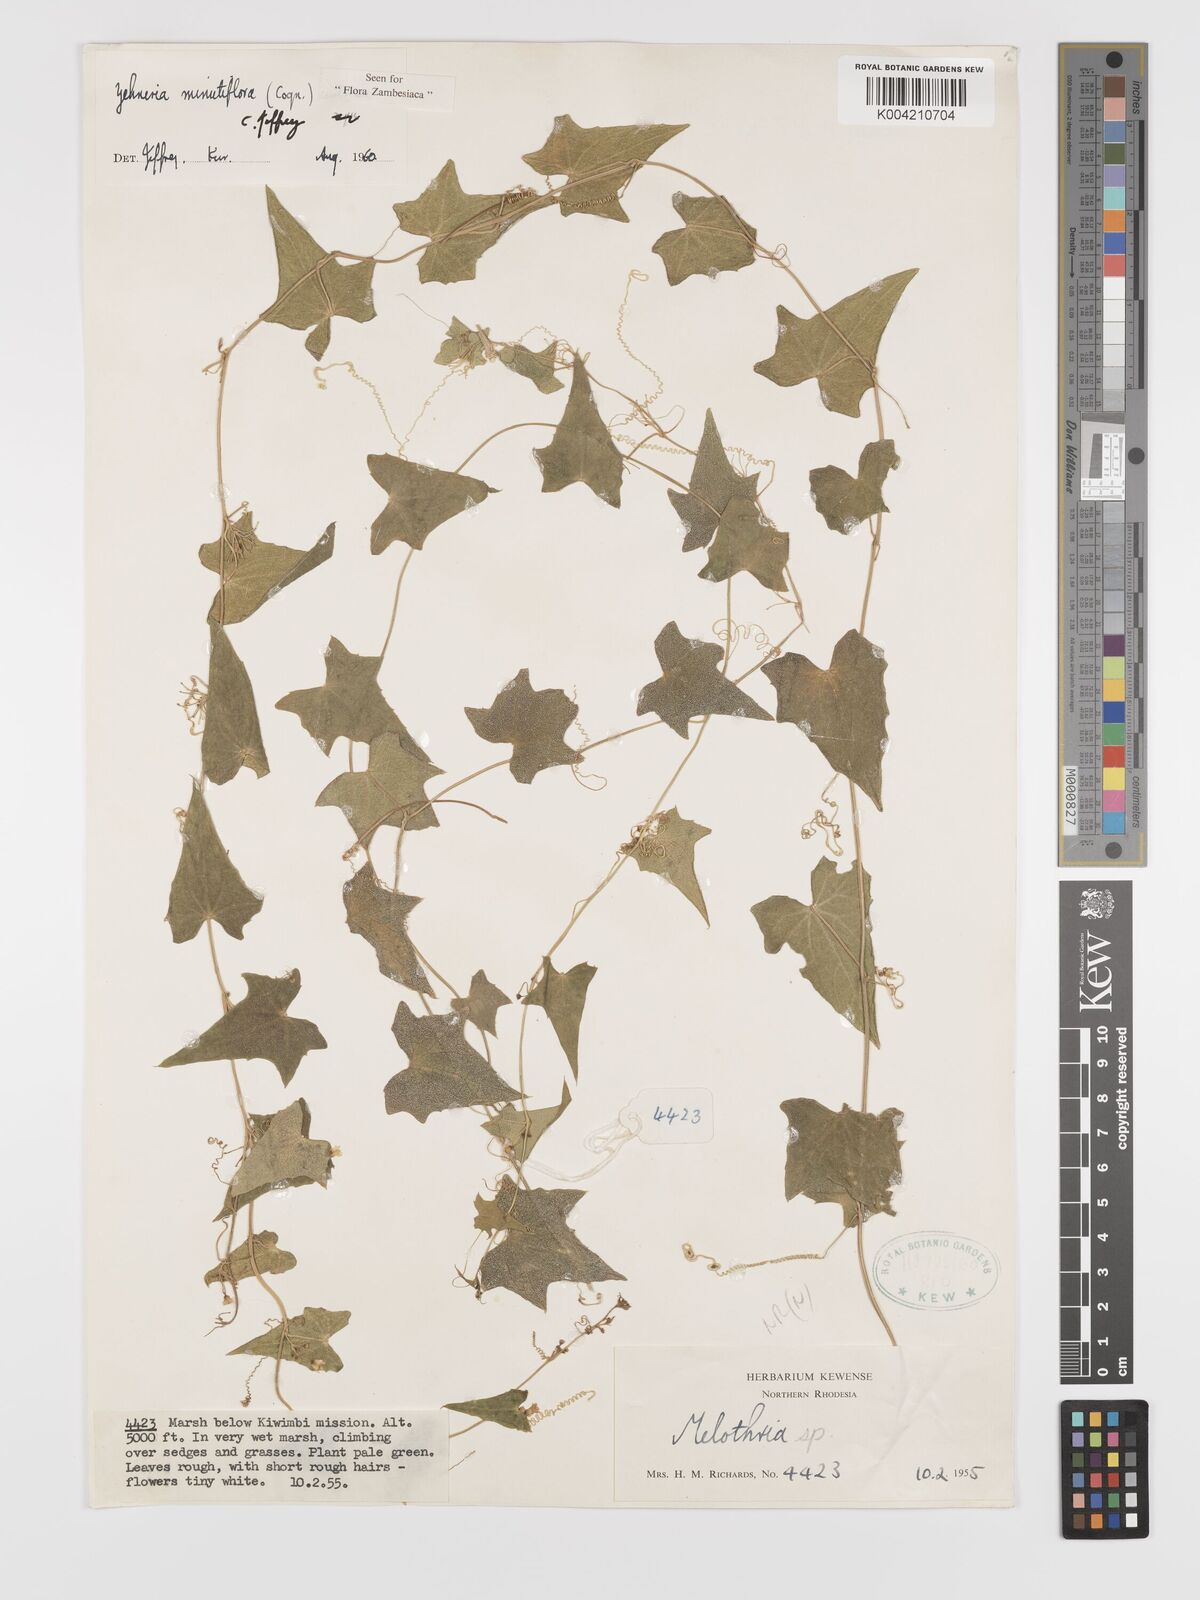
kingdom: Plantae
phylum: Tracheophyta
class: Magnoliopsida
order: Cucurbitales
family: Cucurbitaceae
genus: Zehneria
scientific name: Zehneria minutiflora
